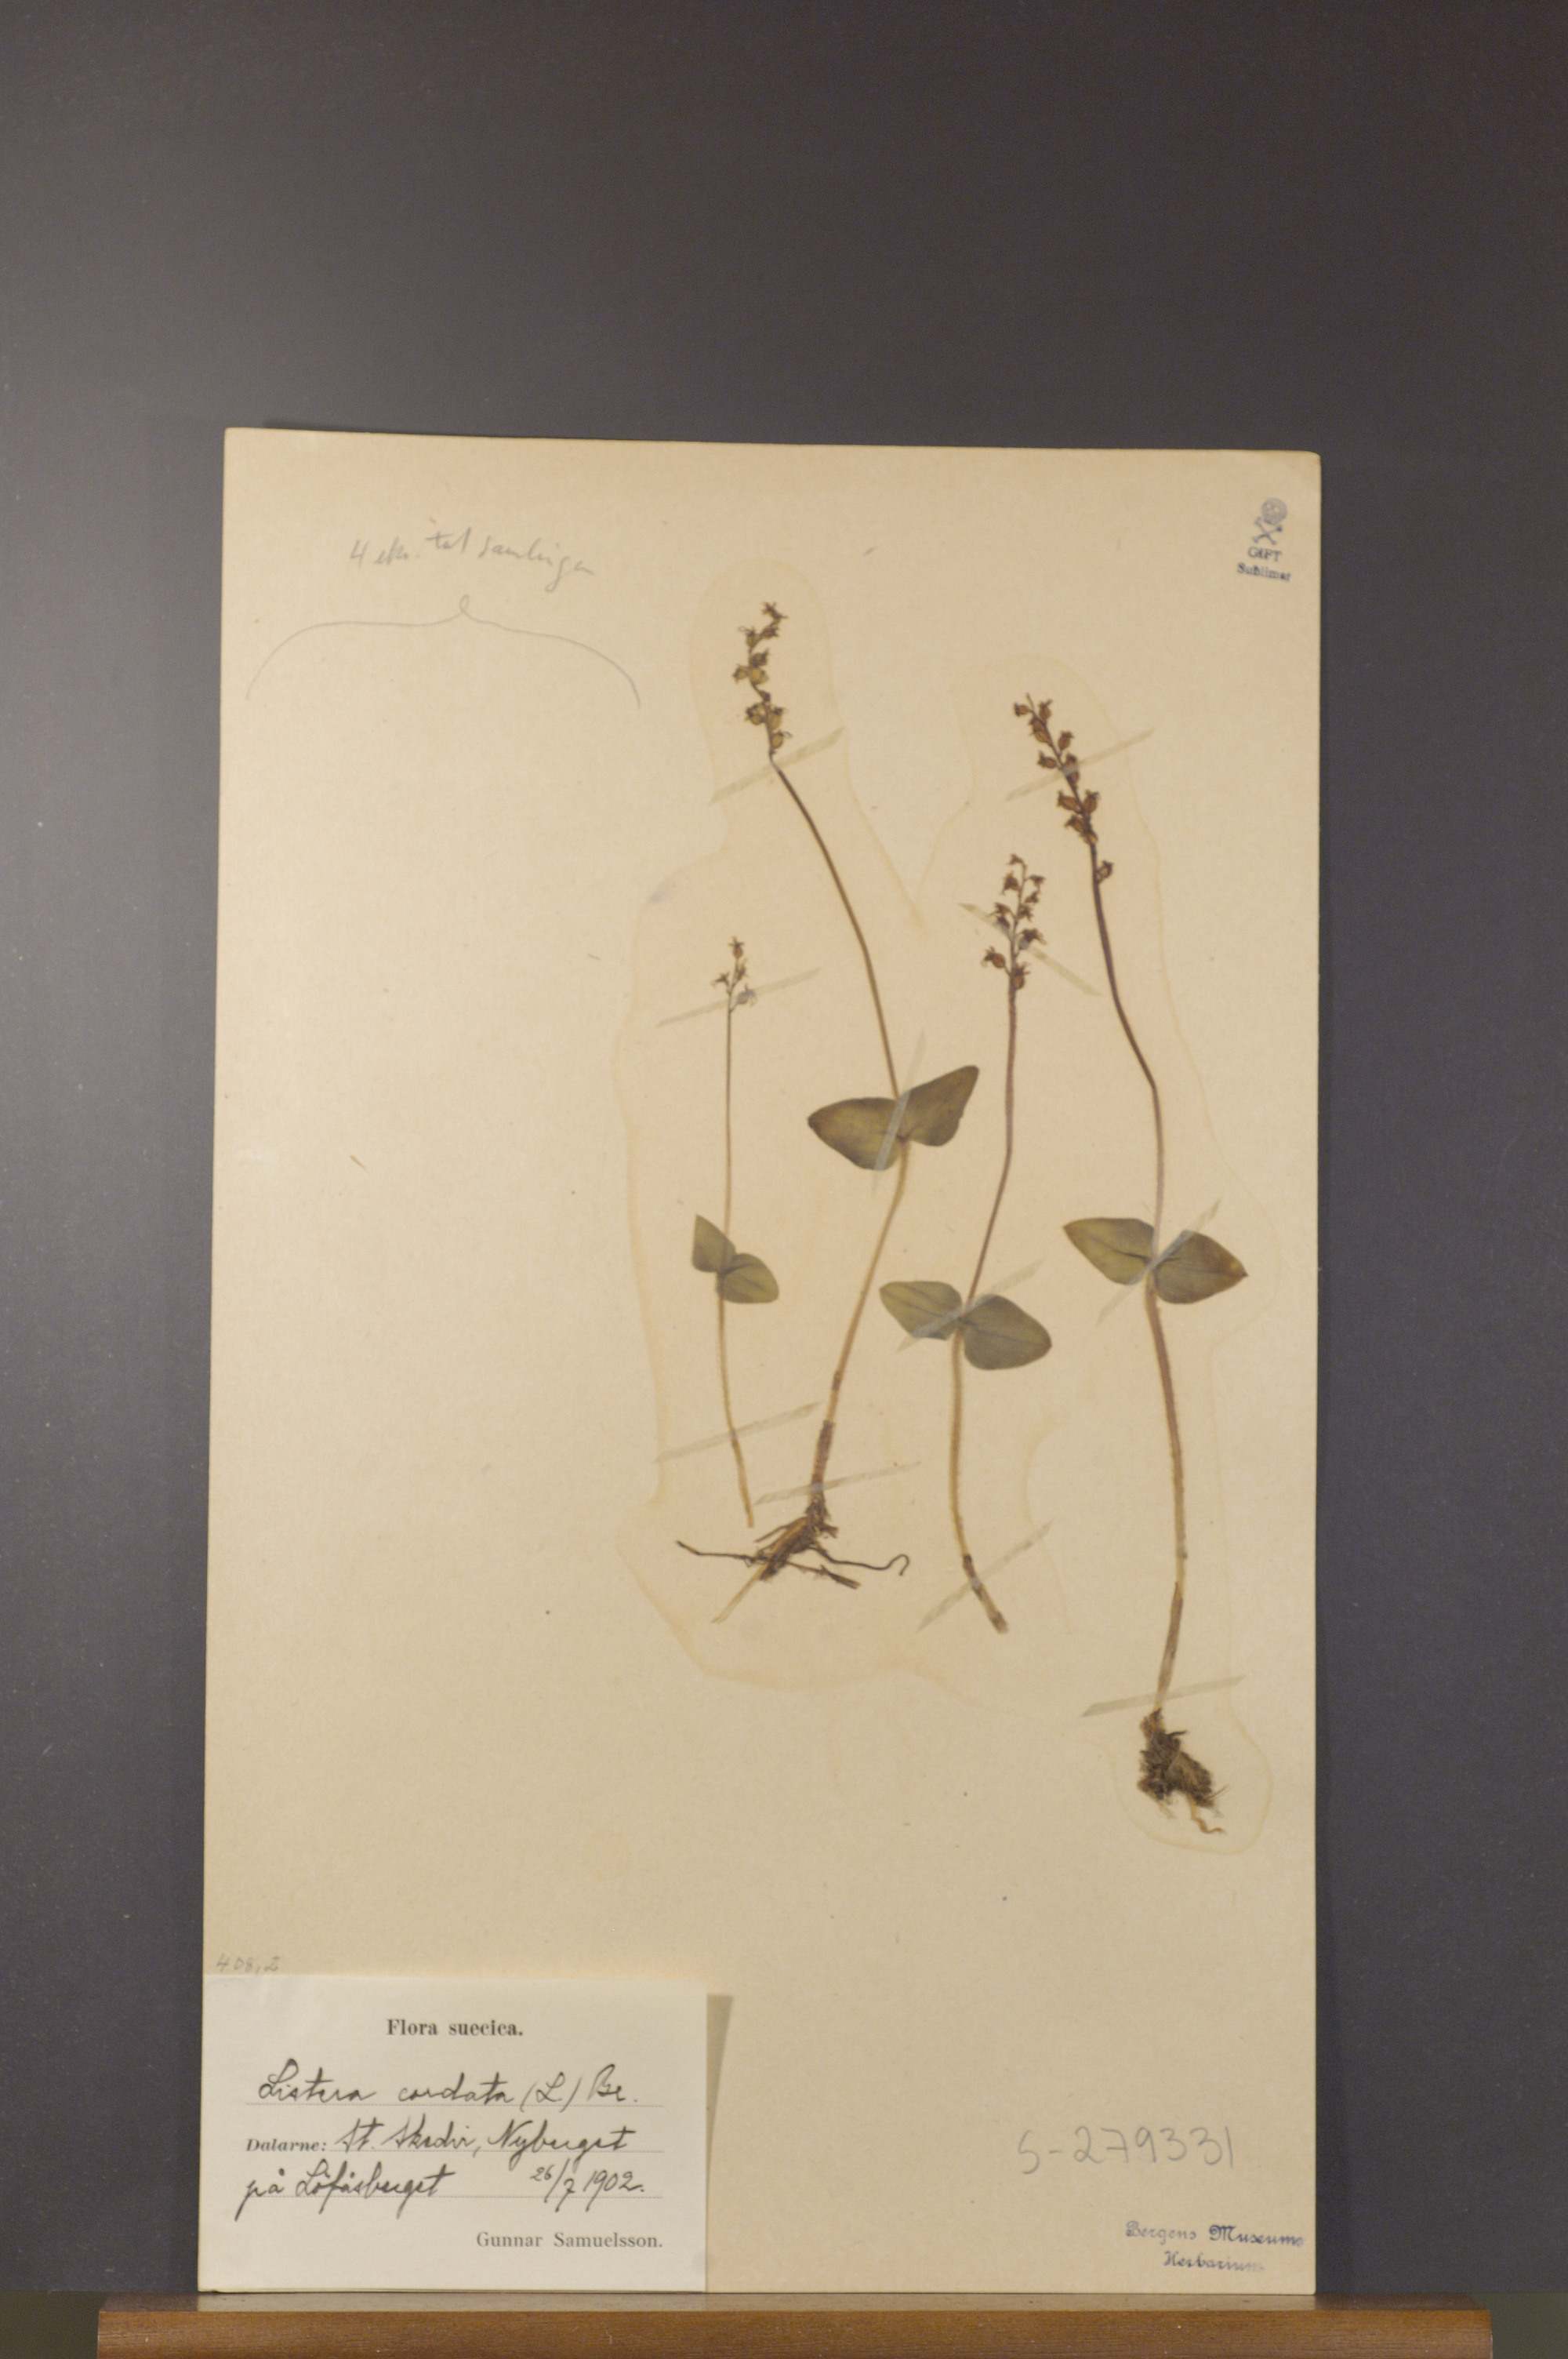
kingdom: Plantae
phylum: Tracheophyta
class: Liliopsida
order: Asparagales
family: Orchidaceae
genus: Neottia
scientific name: Neottia cordata
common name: Lesser twayblade
